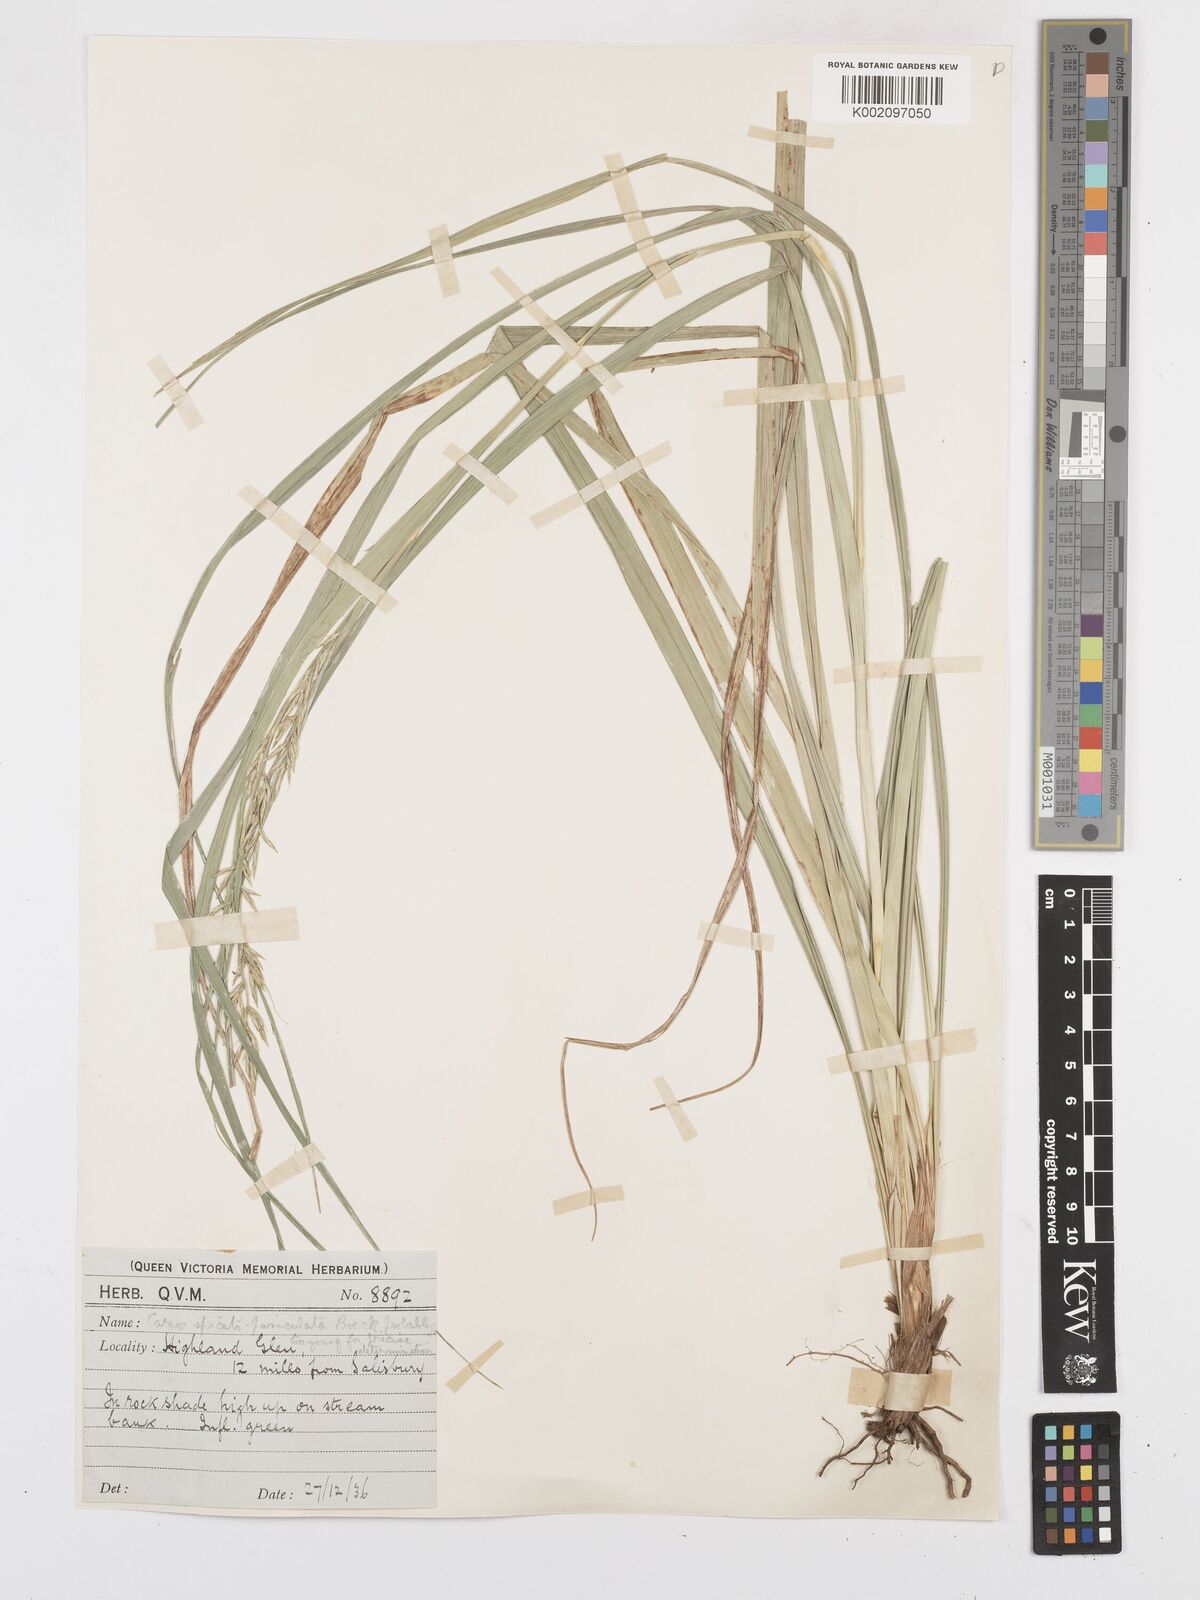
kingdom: Plantae
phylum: Tracheophyta
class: Liliopsida
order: Poales
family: Cyperaceae
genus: Carex
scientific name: Carex spicatopaniculata
